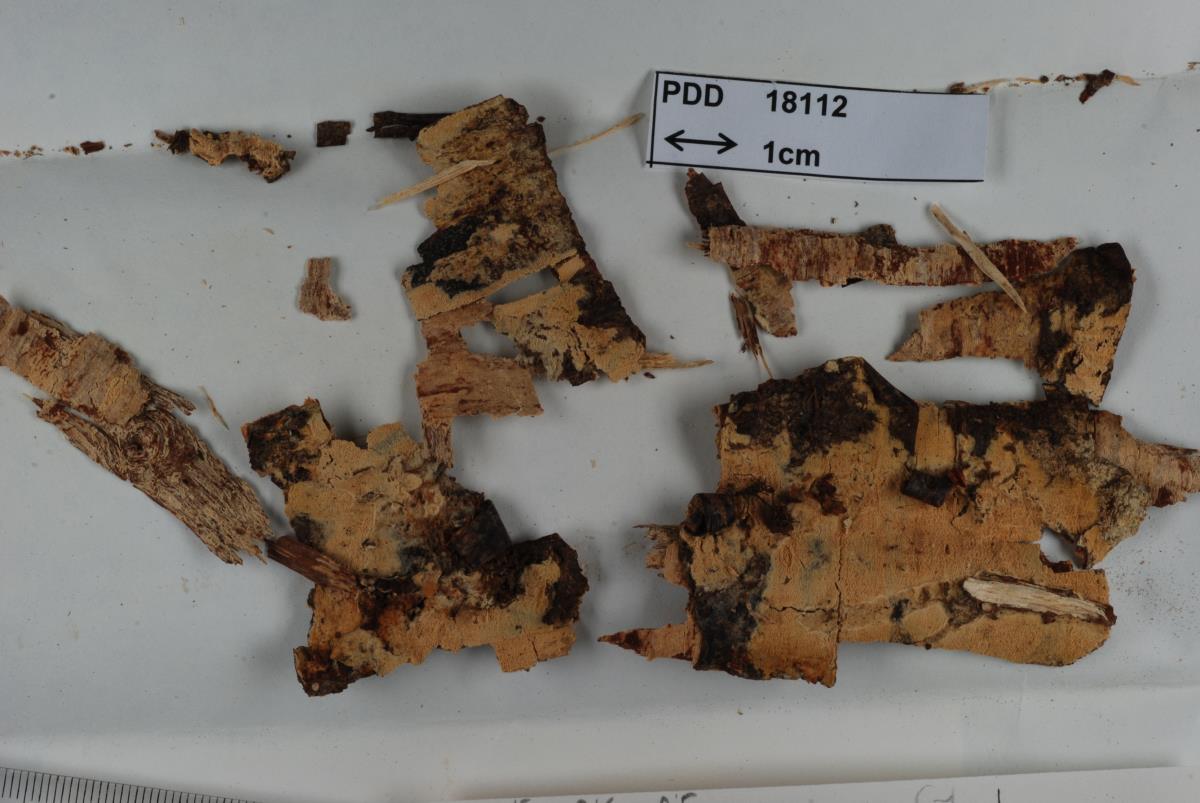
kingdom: Fungi
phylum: Basidiomycota
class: Agaricomycetes
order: Hymenochaetales
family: Hyphodontiaceae
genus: Kneiffiella
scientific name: Kneiffiella lanata
